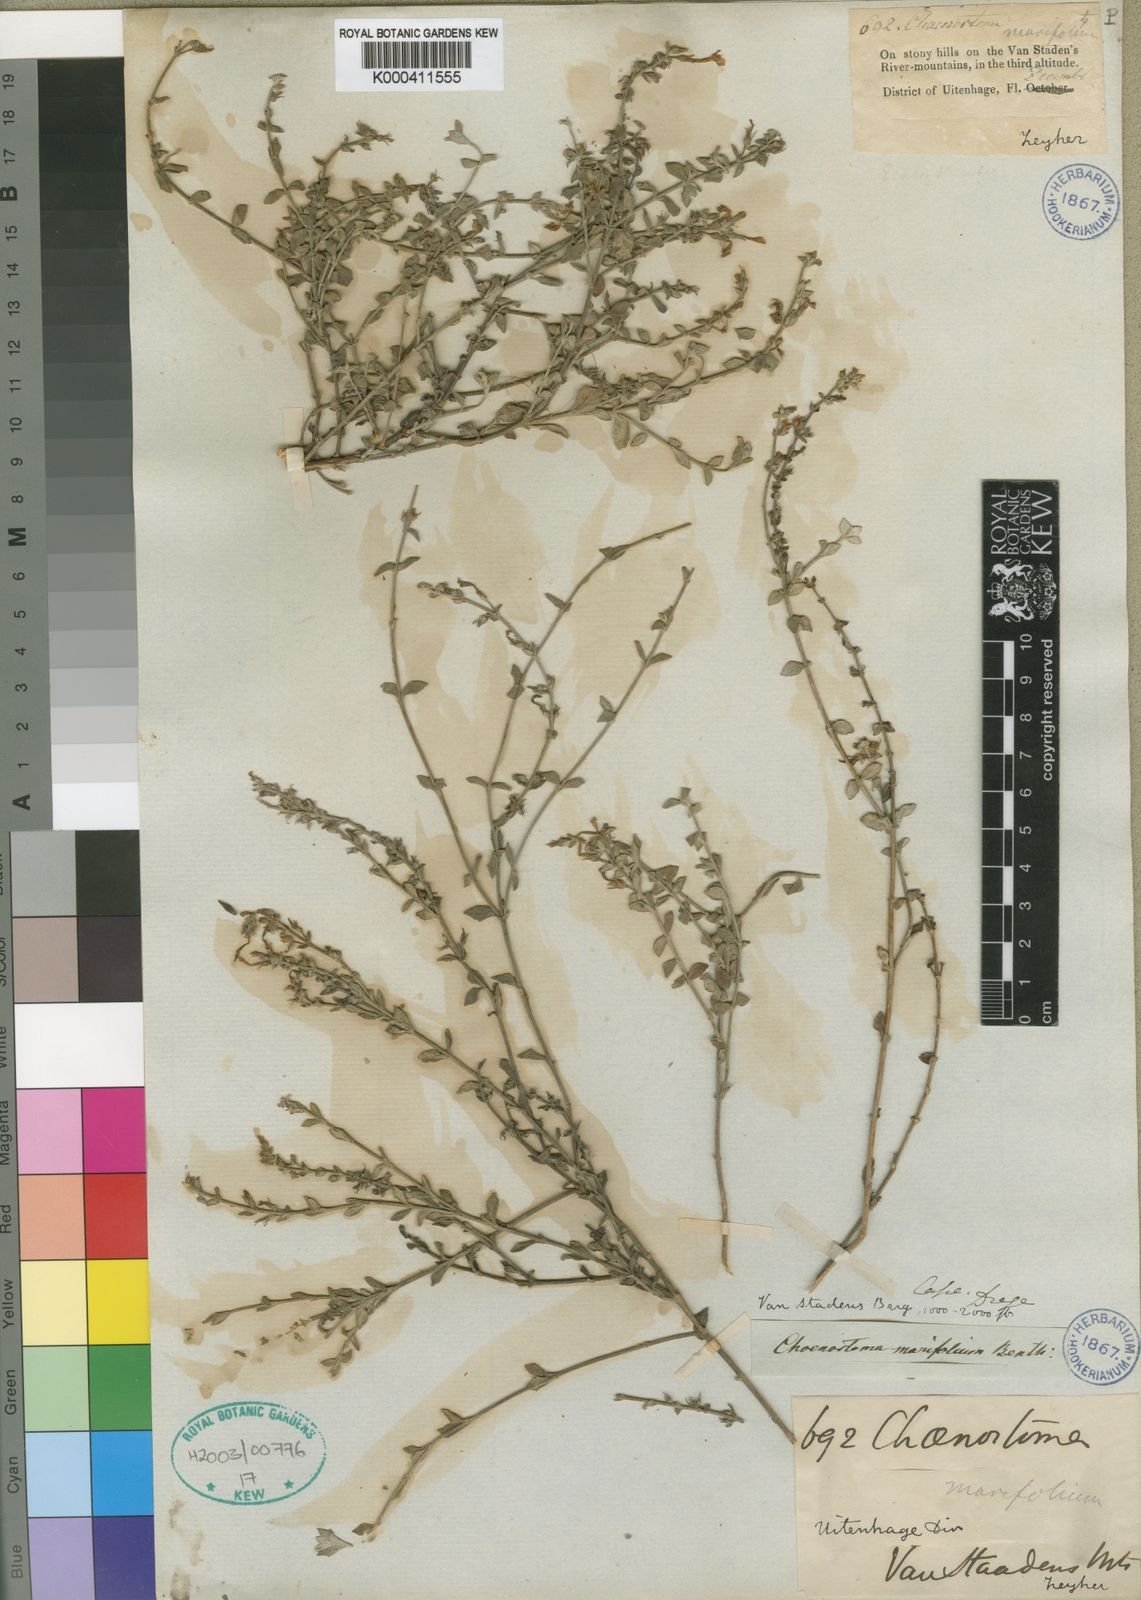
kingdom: Plantae
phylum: Tracheophyta
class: Magnoliopsida
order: Lamiales
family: Scrophulariaceae
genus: Chaenostoma
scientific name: Chaenostoma marifolium
